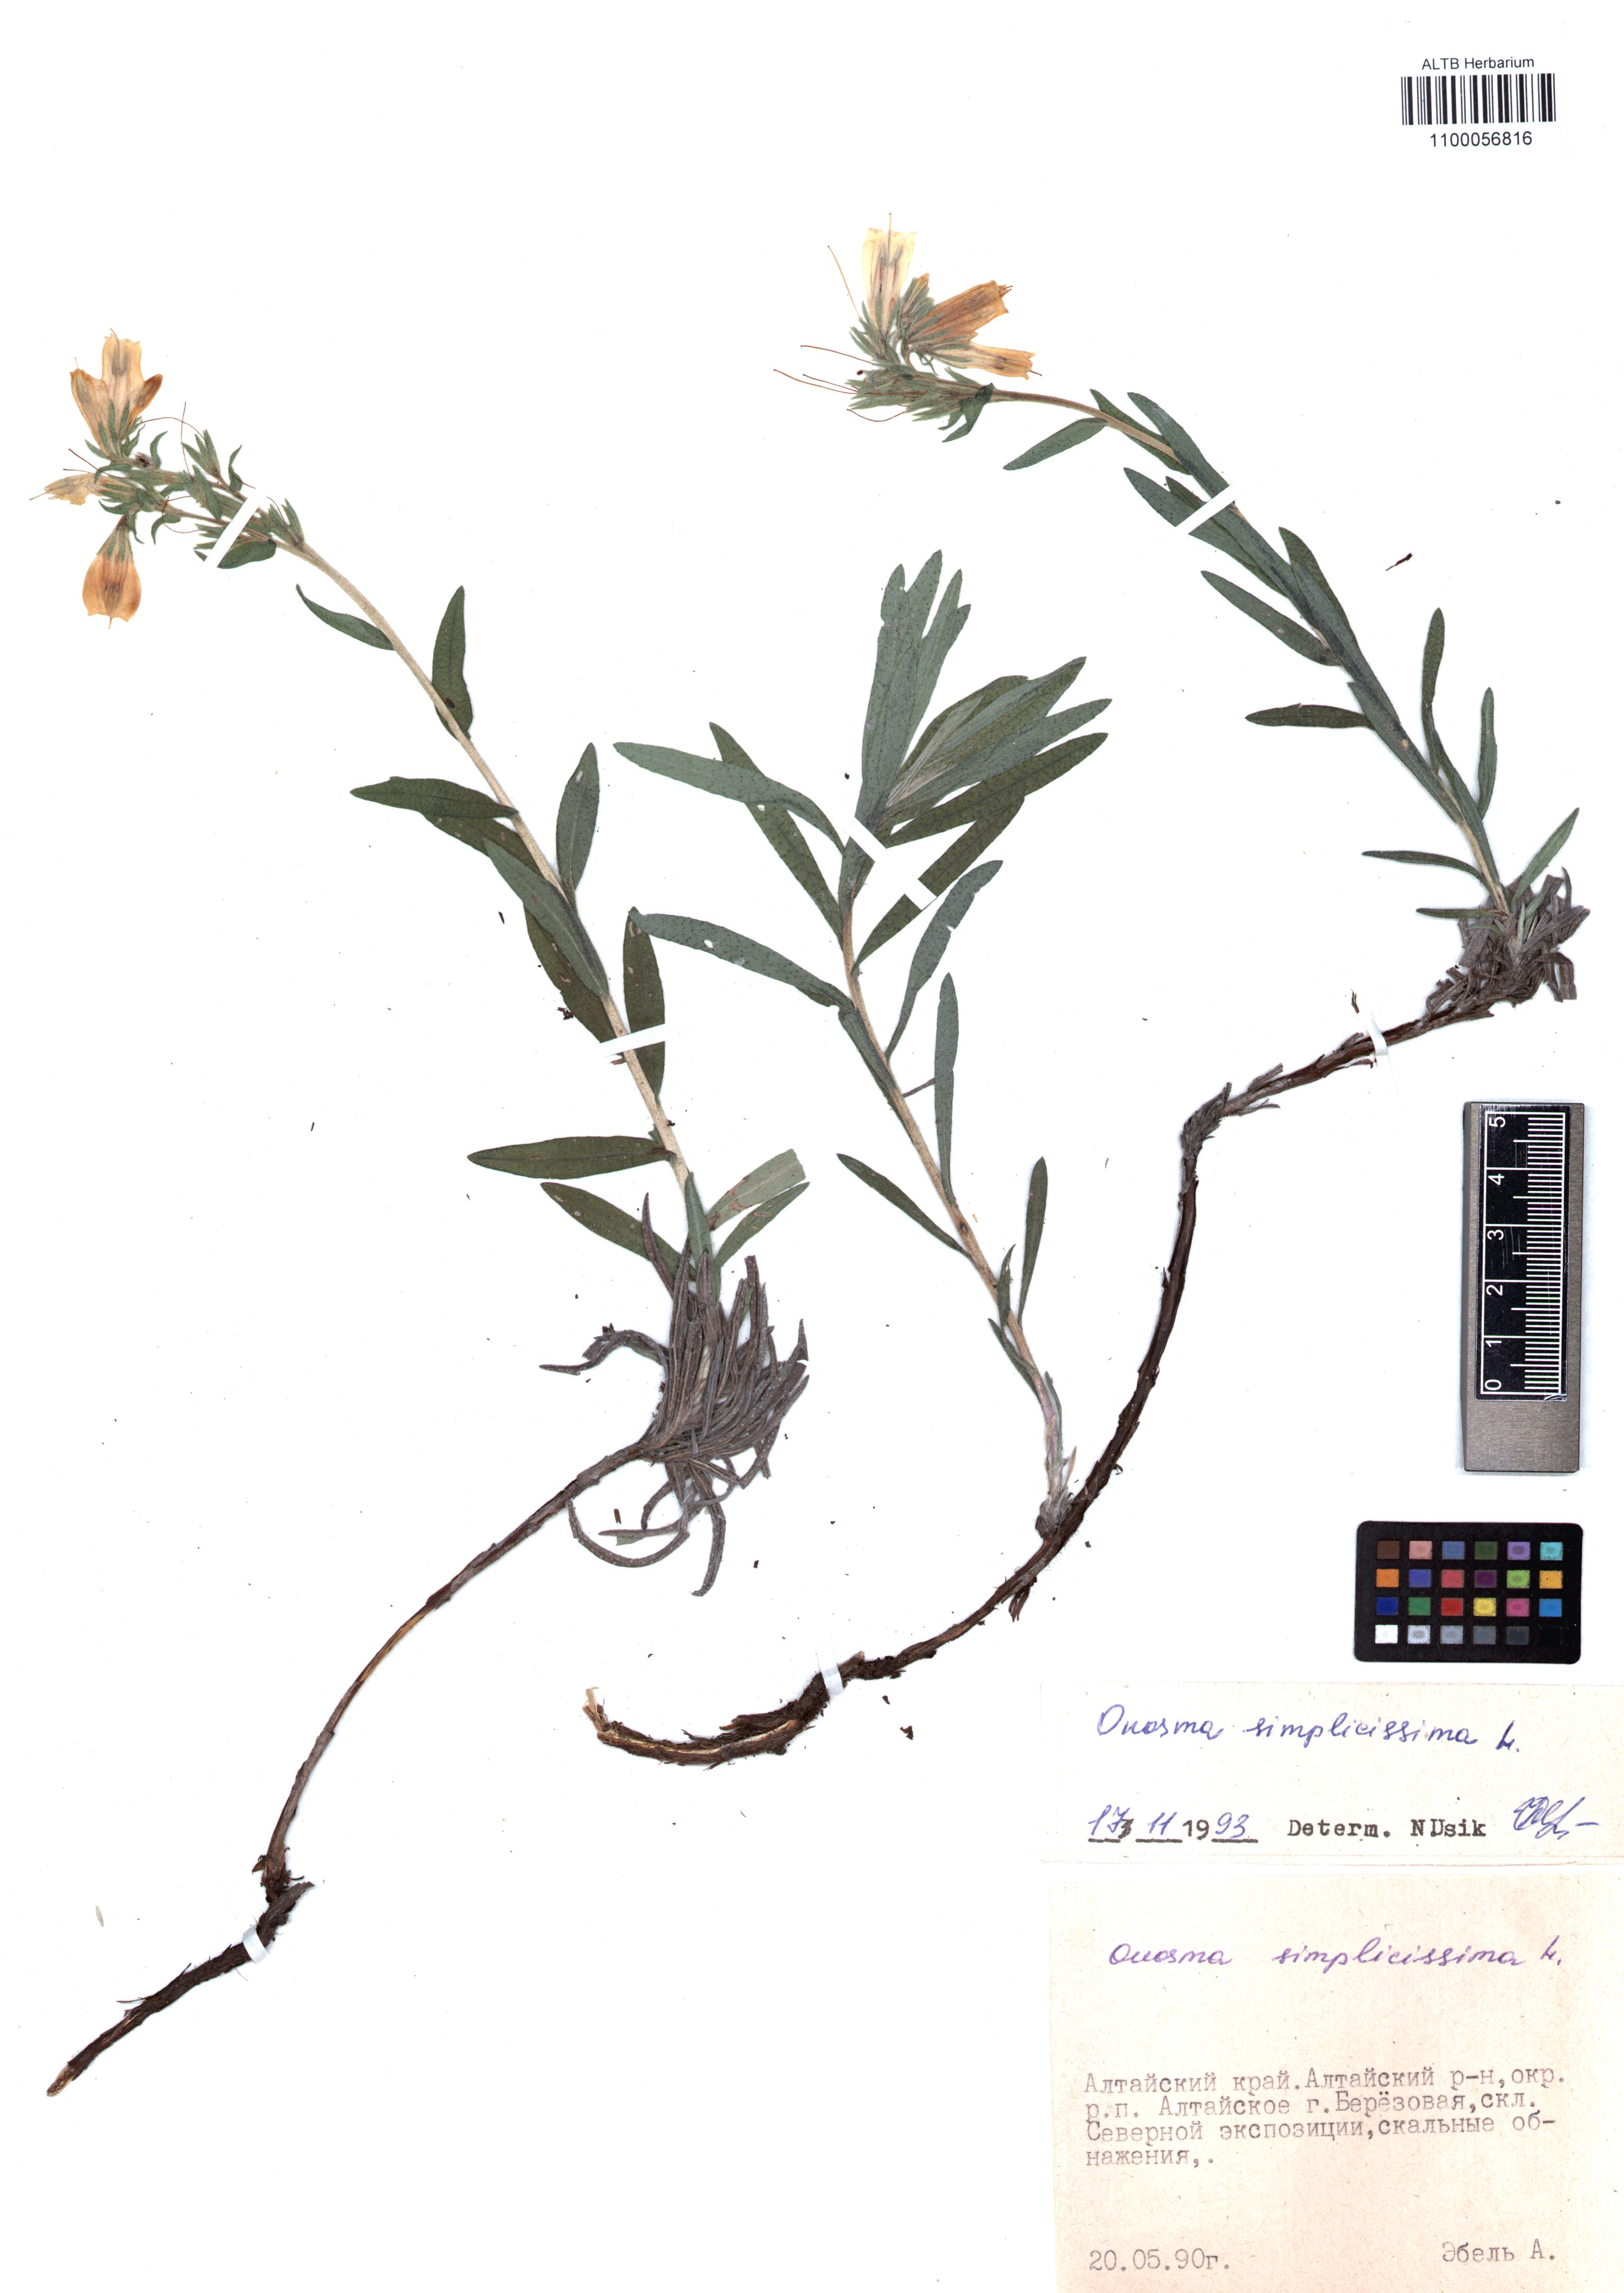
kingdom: Plantae
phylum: Tracheophyta
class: Magnoliopsida
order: Boraginales
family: Boraginaceae
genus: Onosma
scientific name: Onosma simplicissima
